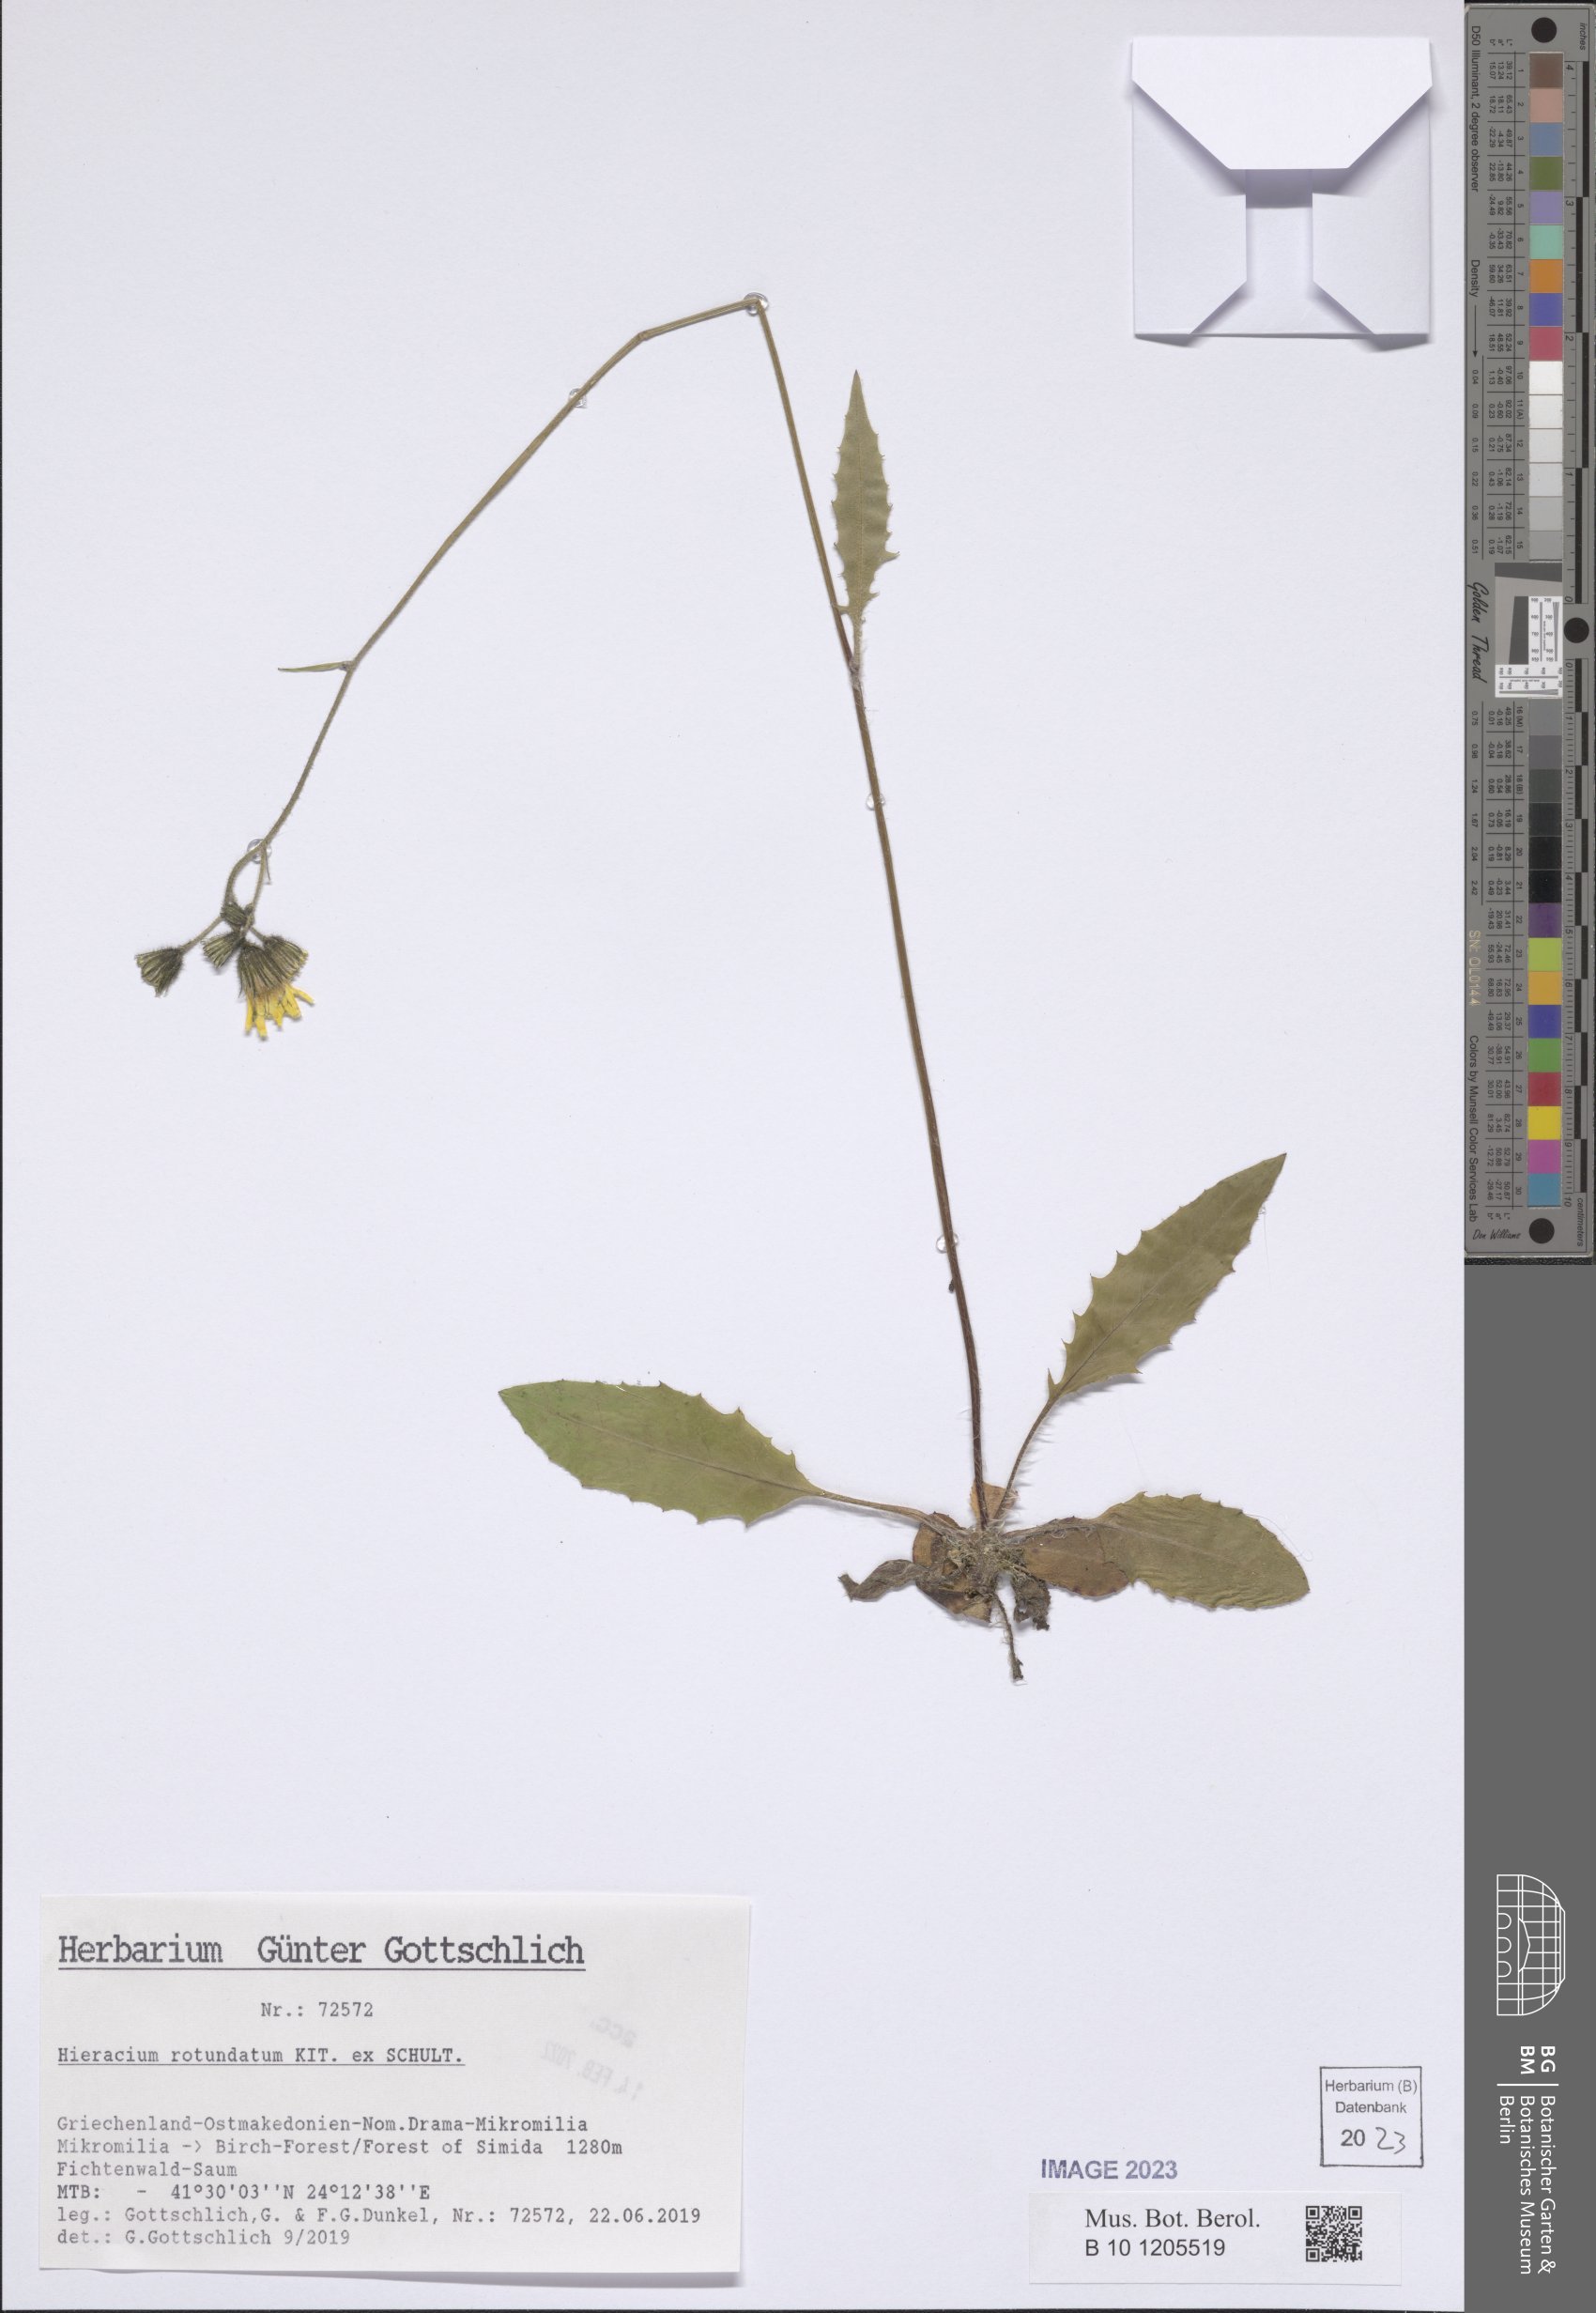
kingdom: Plantae
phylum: Tracheophyta
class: Magnoliopsida
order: Asterales
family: Asteraceae
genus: Hieracium
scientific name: Hieracium rotundatum
